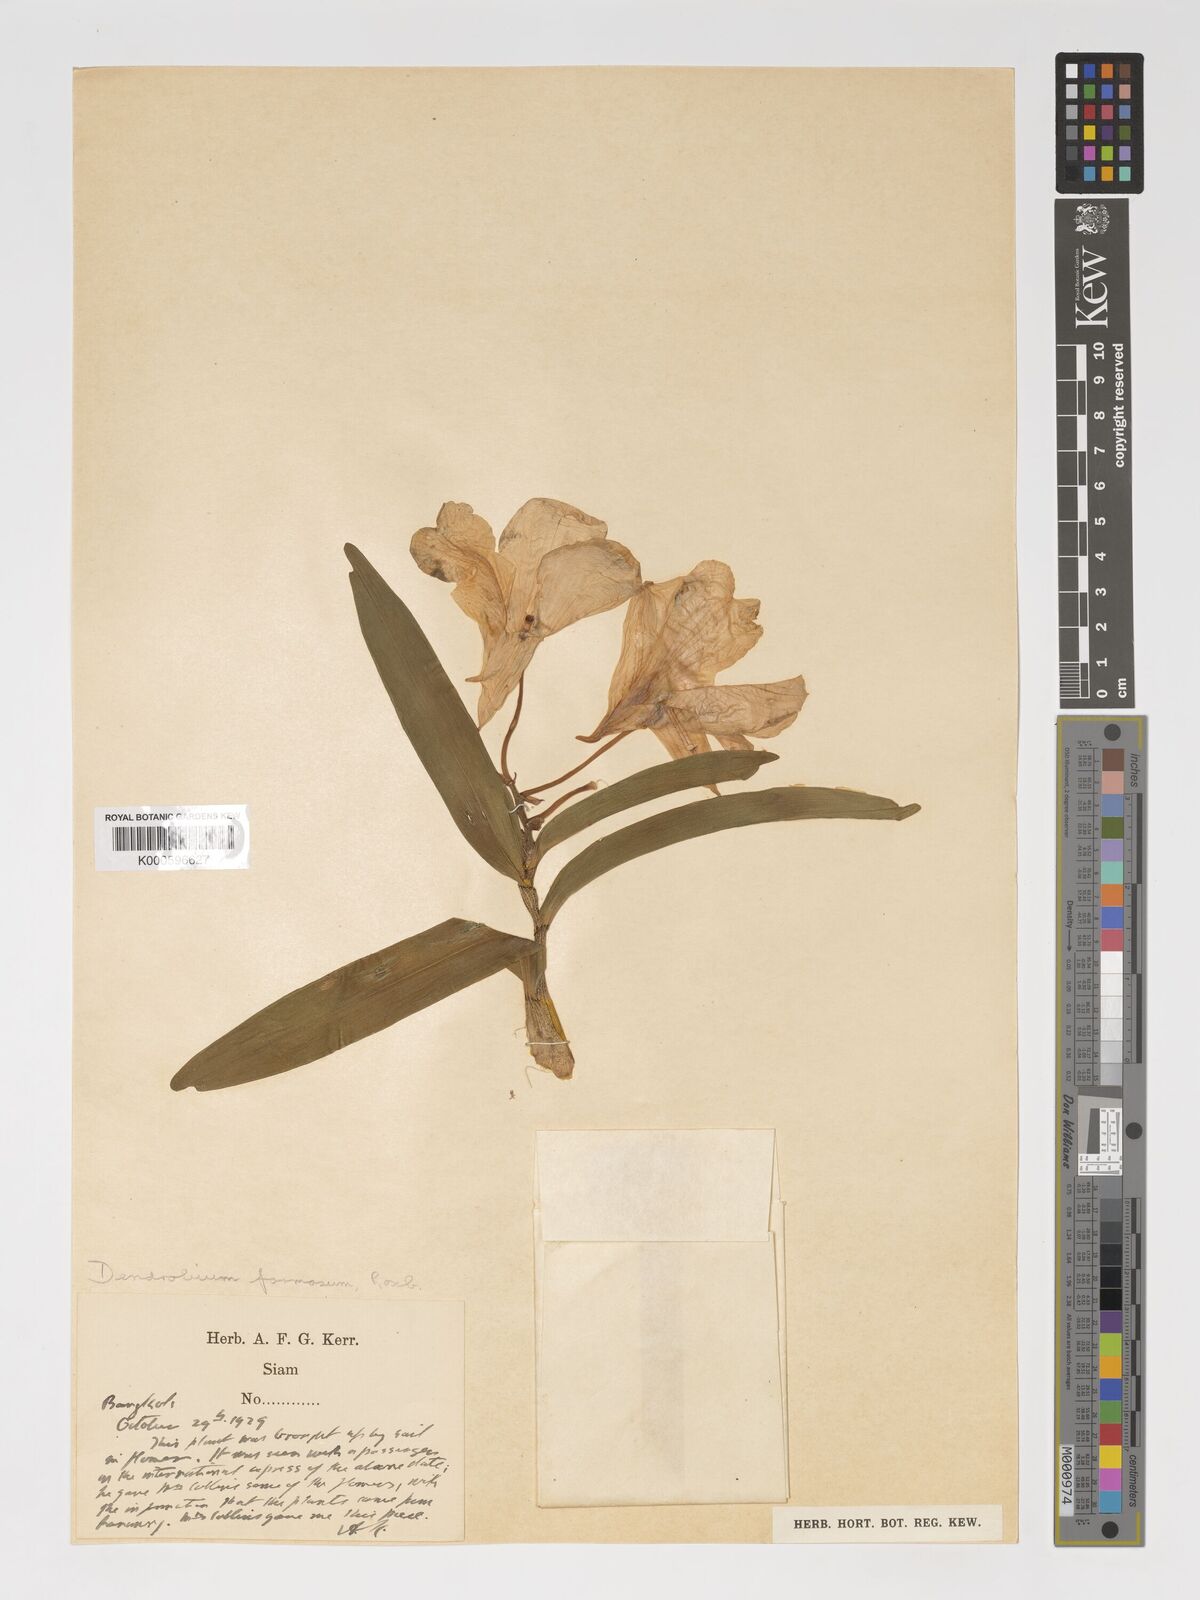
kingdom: Plantae
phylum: Tracheophyta
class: Liliopsida
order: Asparagales
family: Orchidaceae
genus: Dendrobium
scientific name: Dendrobium
